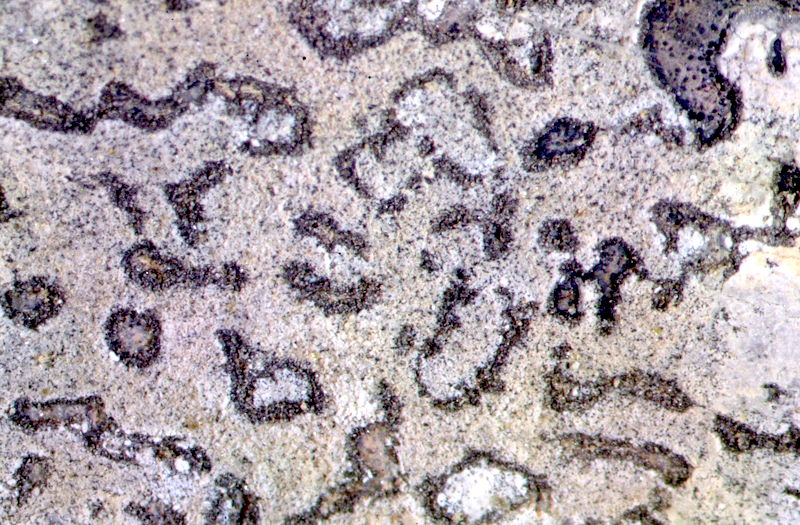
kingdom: Fungi
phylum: Ascomycota
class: Lecanoromycetes
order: Teloschistales
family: Teloschistaceae
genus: Stellarangia
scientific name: Stellarangia elegantissima
